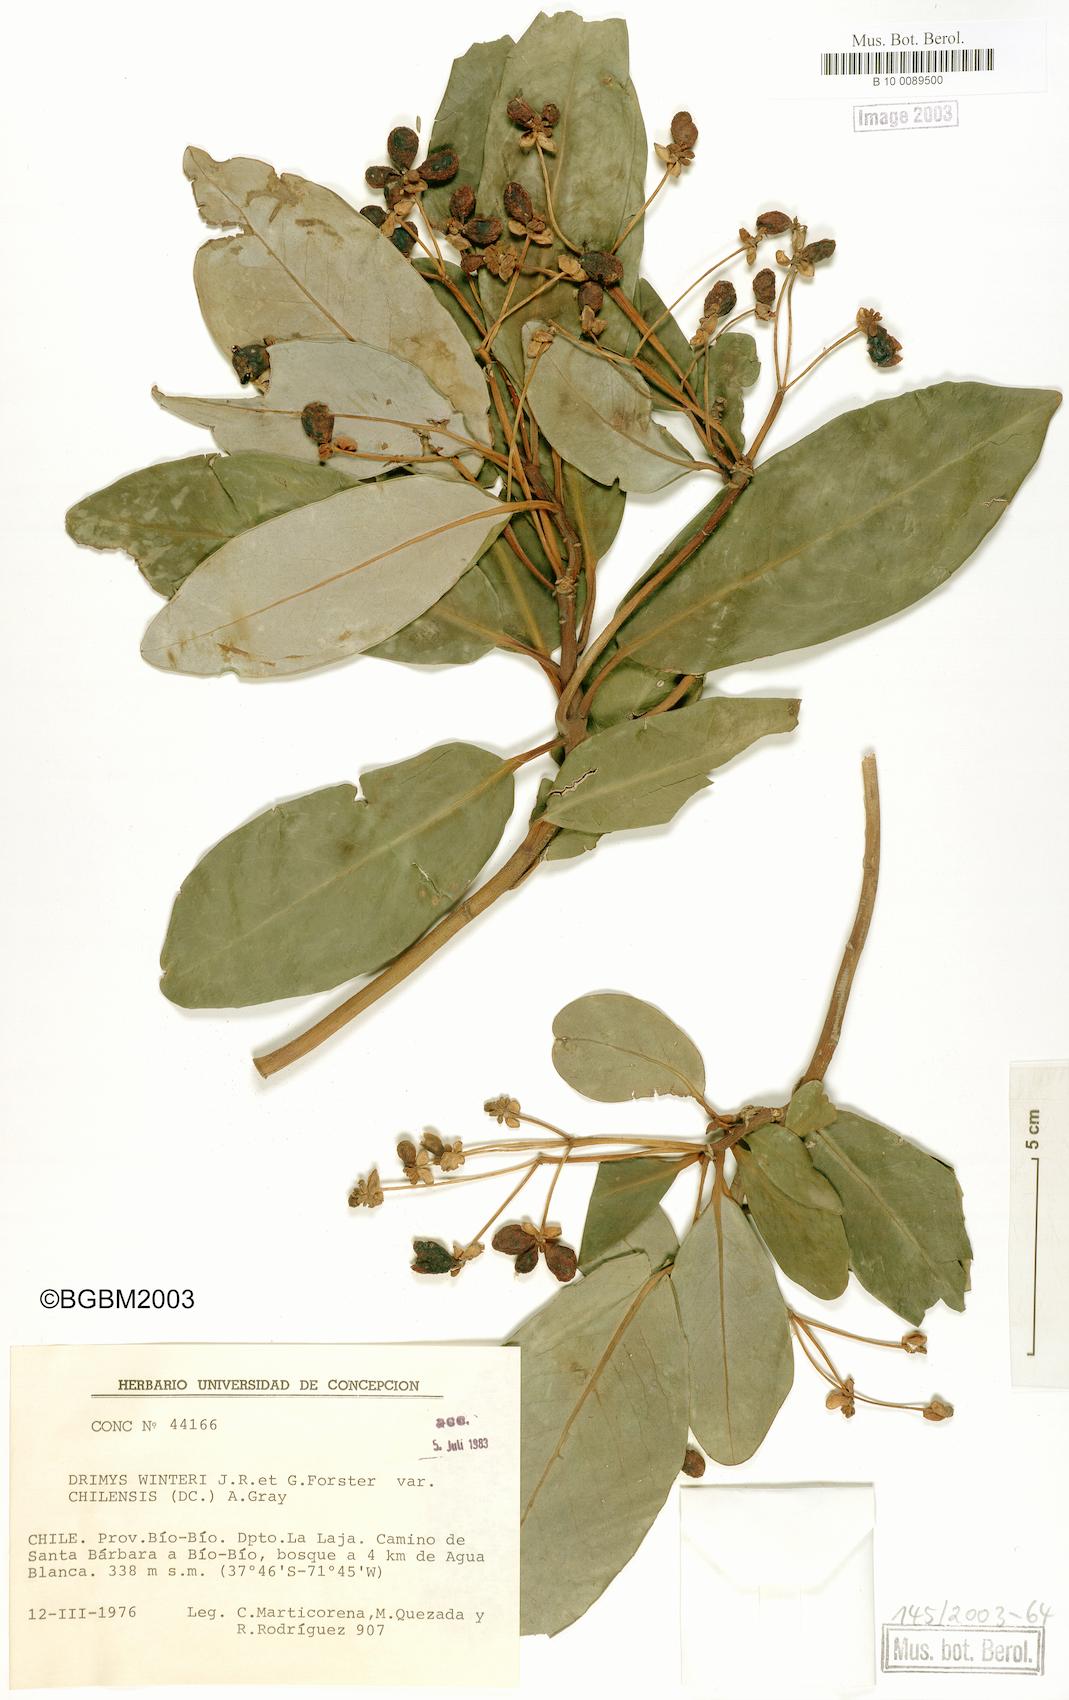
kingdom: Plantae
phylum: Tracheophyta
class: Magnoliopsida
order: Canellales
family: Winteraceae
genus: Drimys
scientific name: Drimys winteri
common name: Winter's-bark
